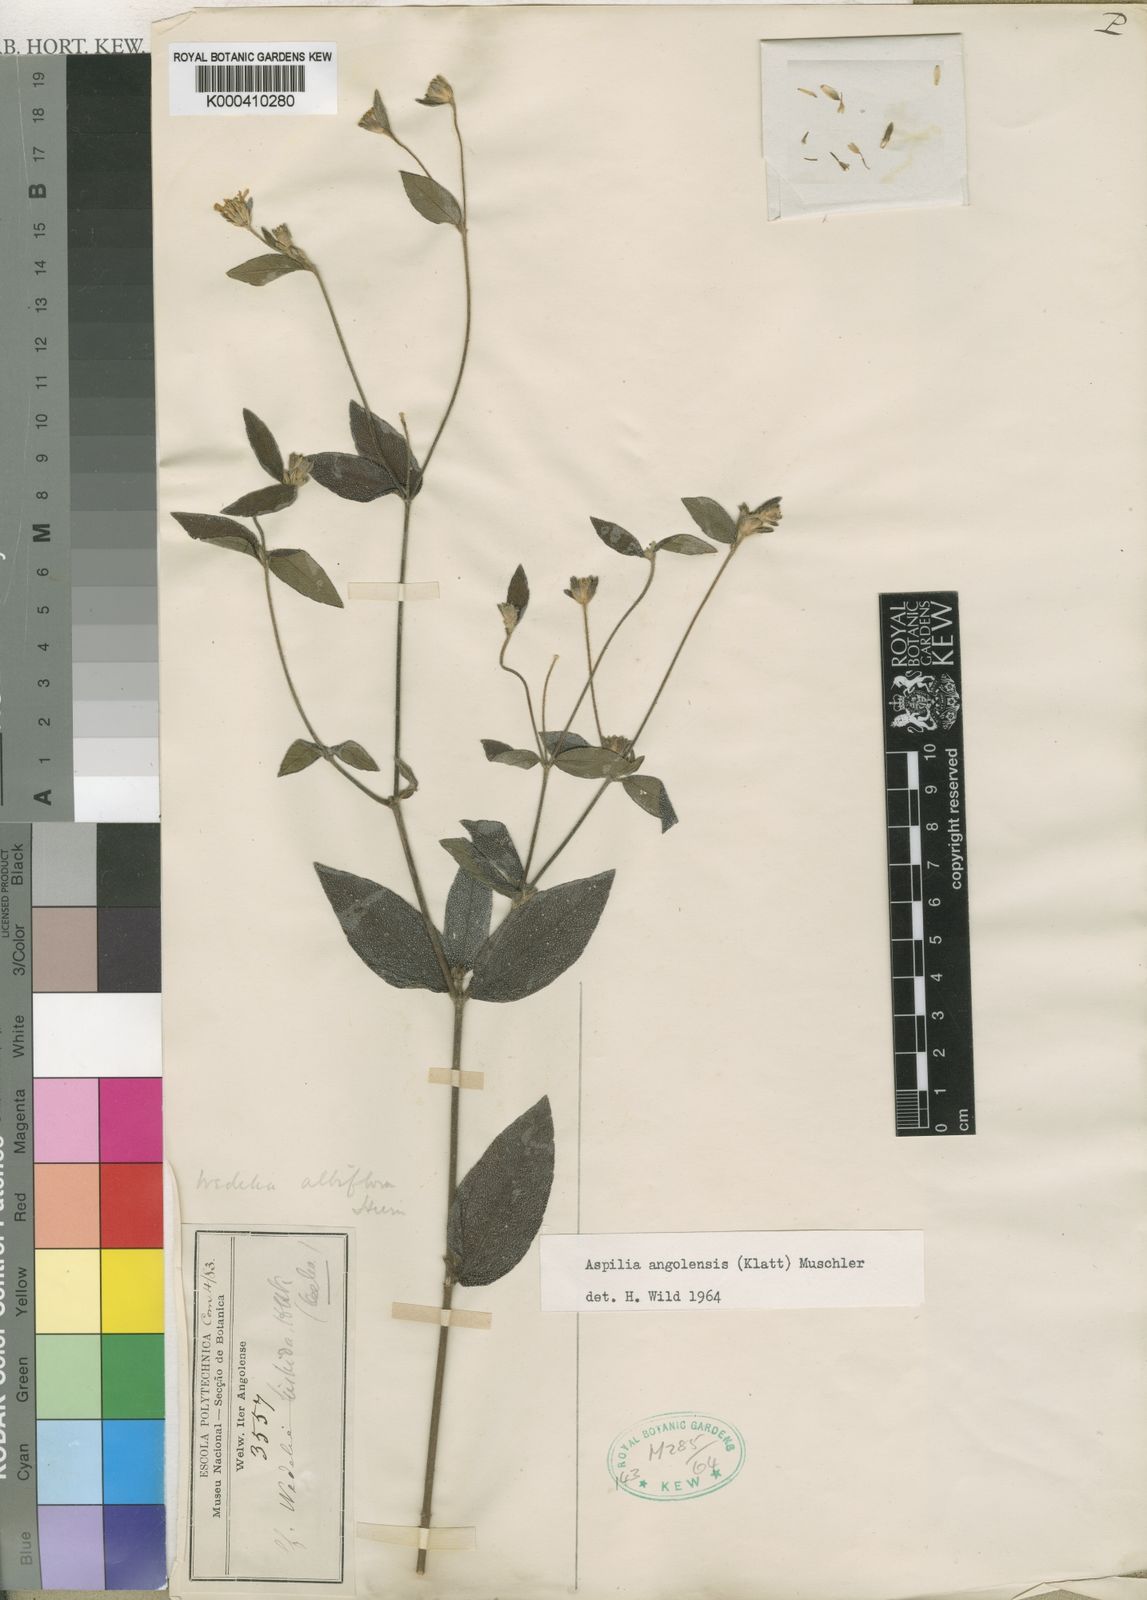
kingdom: Plantae
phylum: Tracheophyta
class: Magnoliopsida
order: Asterales
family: Asteraceae
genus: Aspilia
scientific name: Aspilia angolensis
